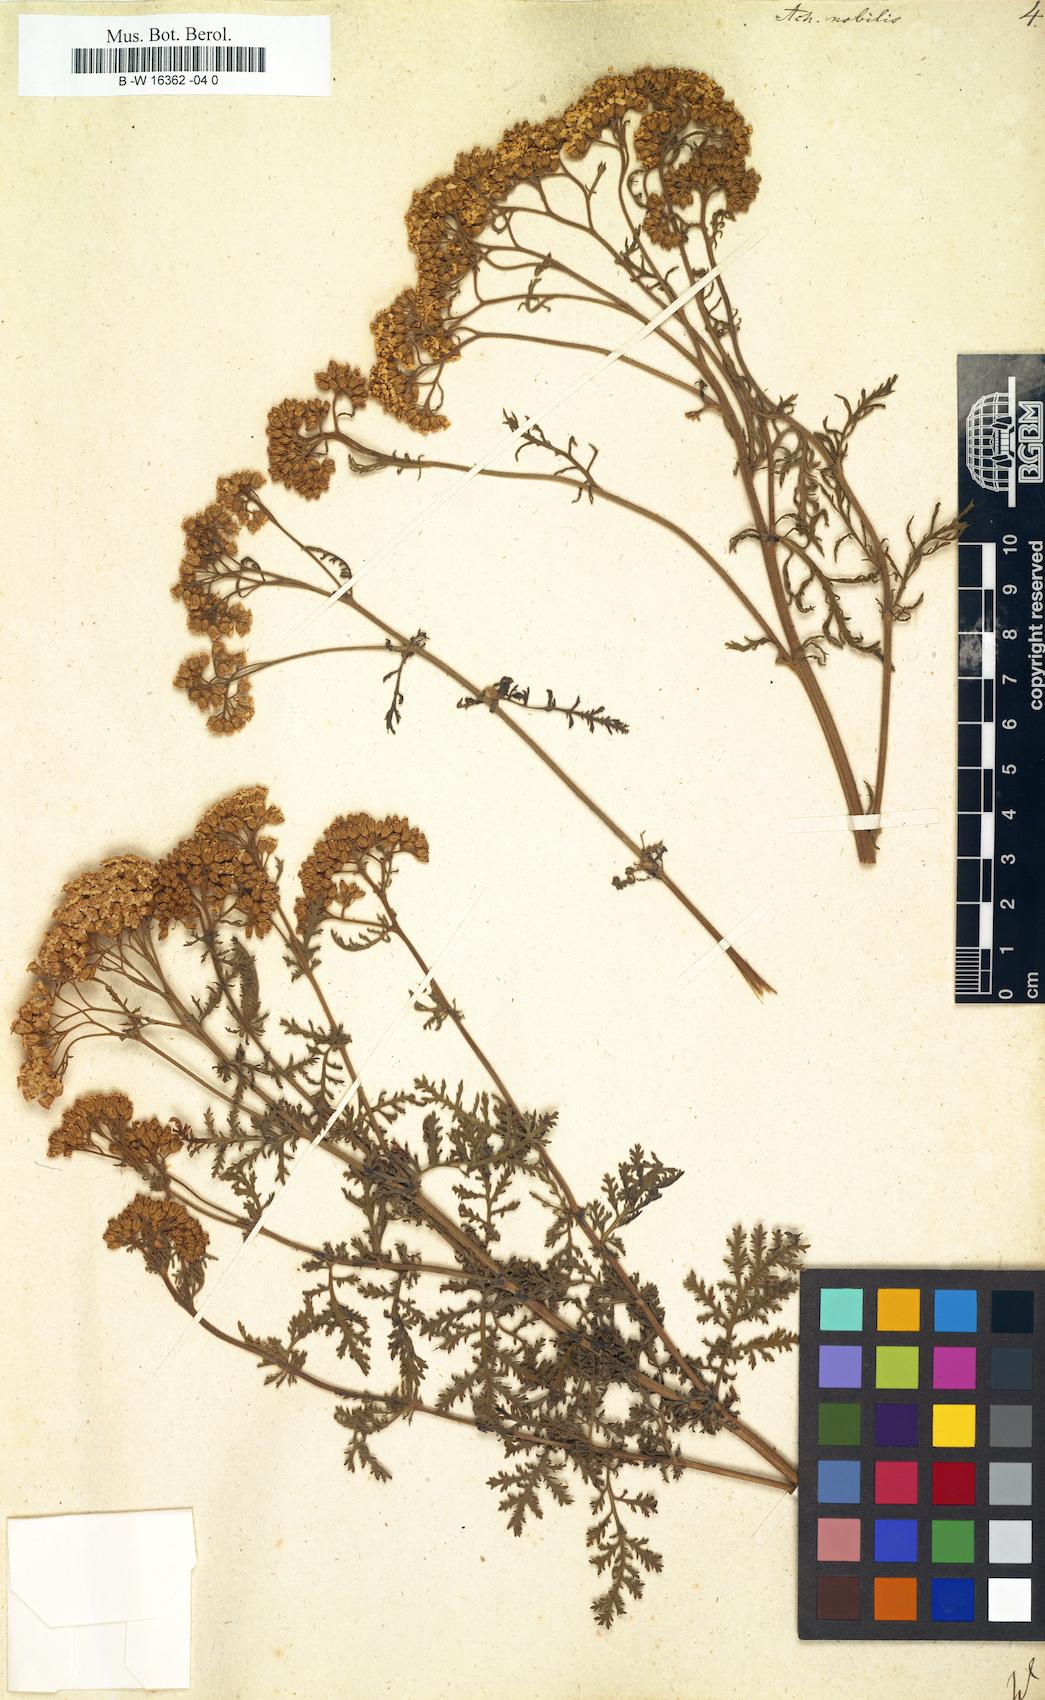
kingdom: Plantae
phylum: Tracheophyta
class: Magnoliopsida
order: Asterales
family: Asteraceae
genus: Achillea
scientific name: Achillea nobilis
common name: Noble yarrow
